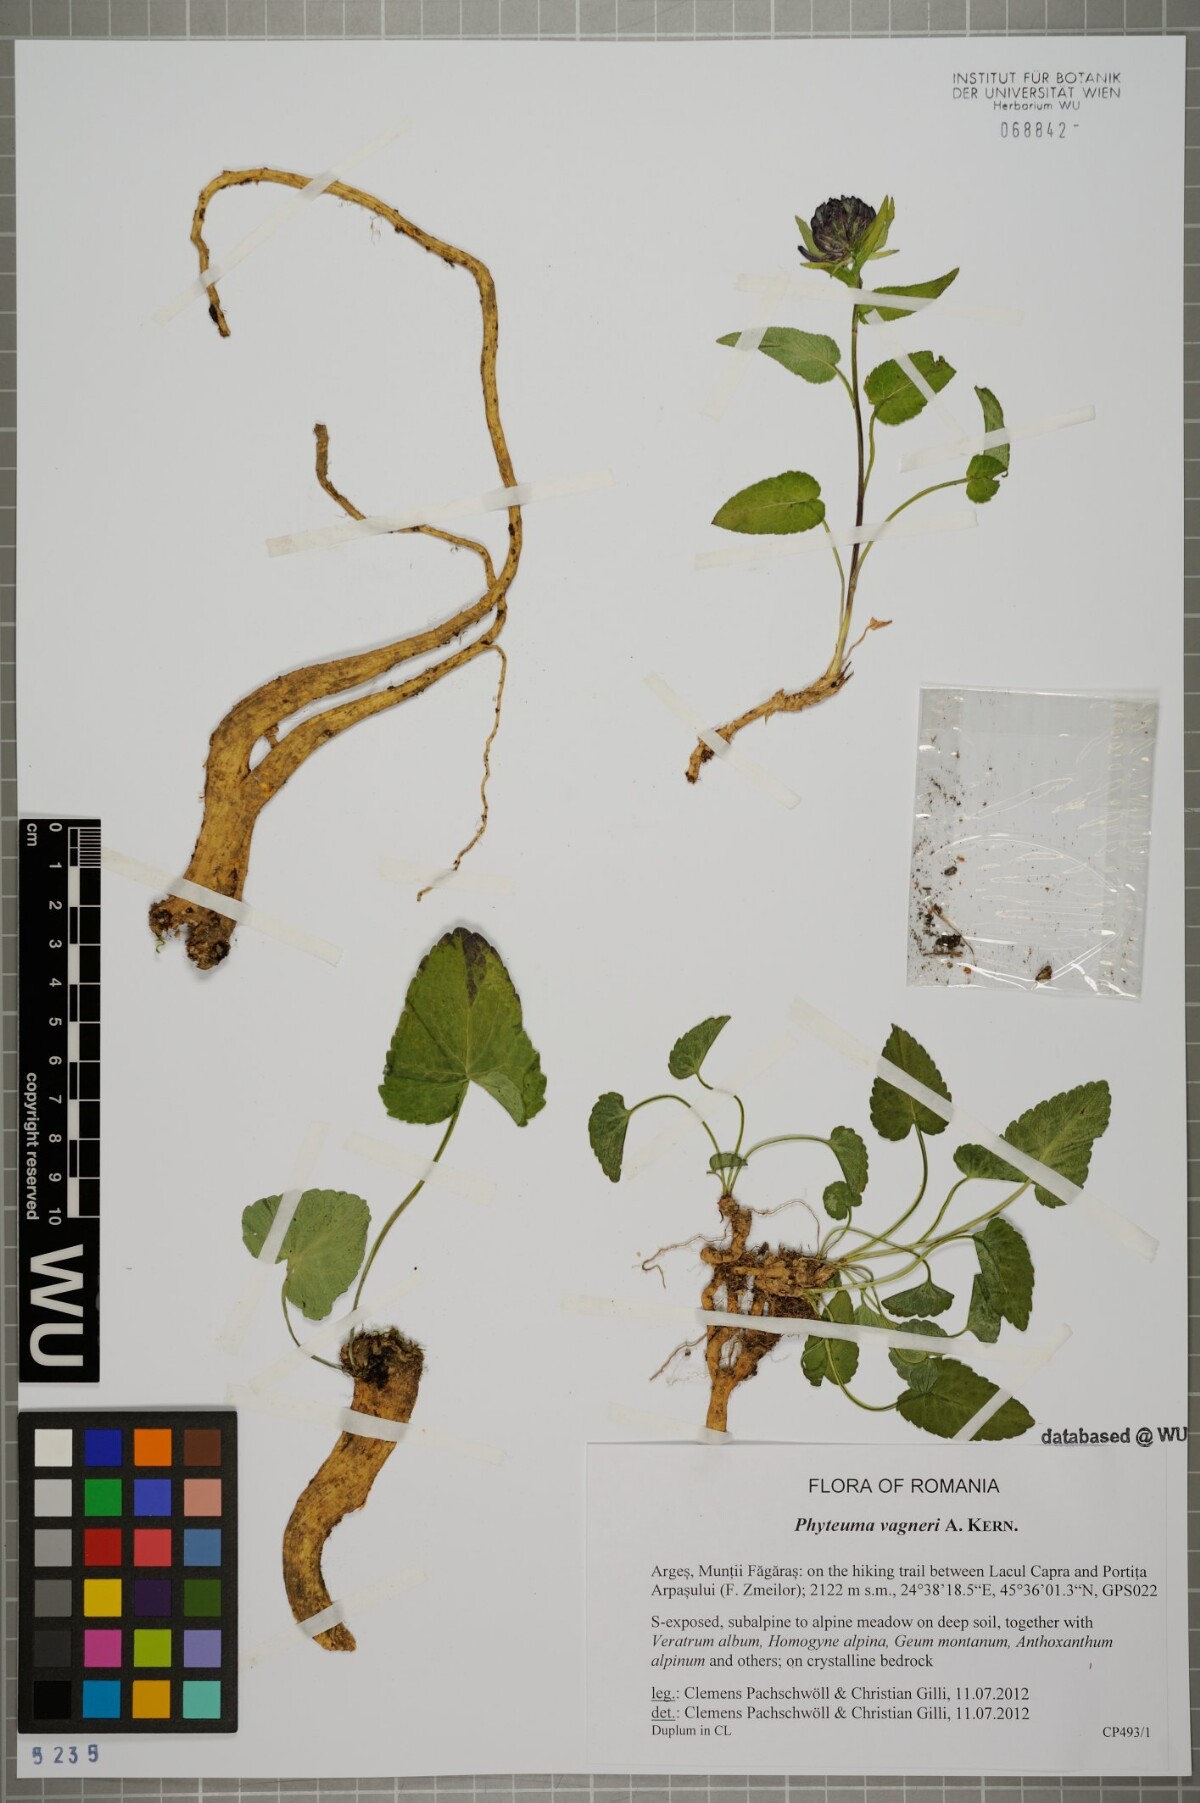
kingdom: Plantae
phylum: Tracheophyta
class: Magnoliopsida
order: Asterales
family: Campanulaceae
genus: Phyteuma
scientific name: Phyteuma vagneri
